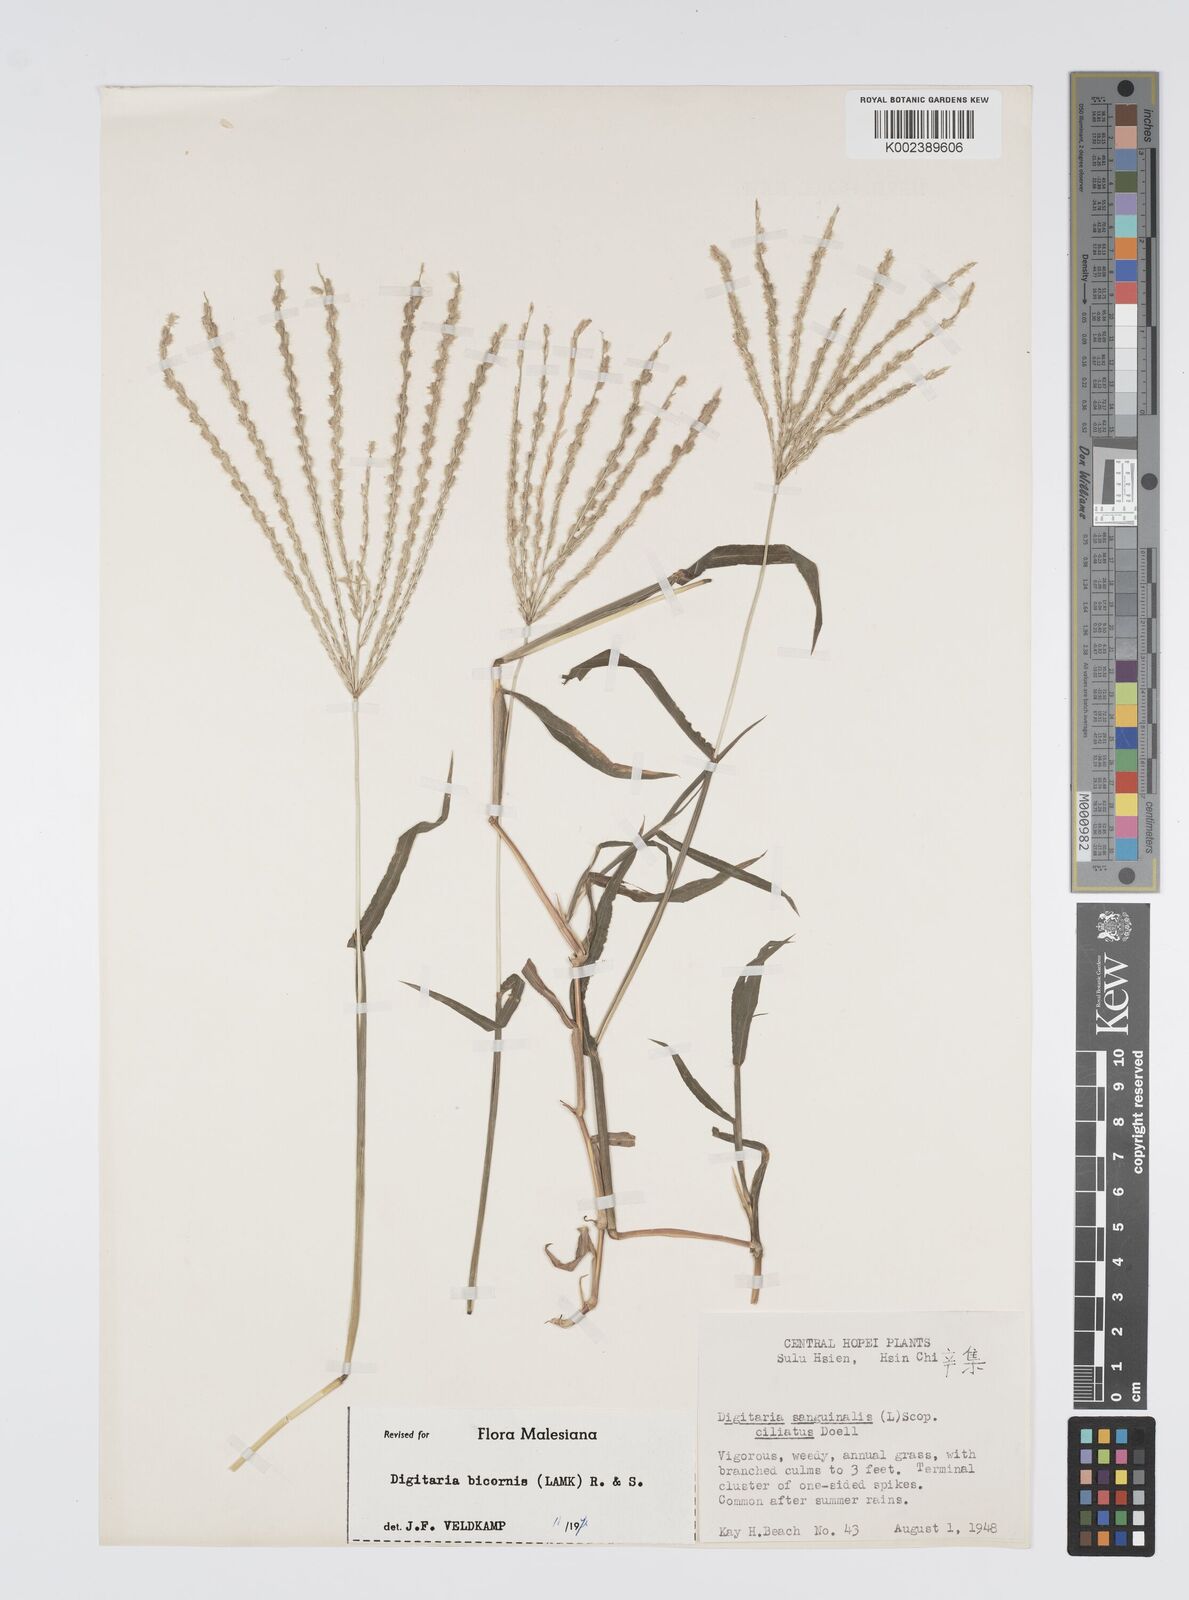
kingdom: Plantae
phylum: Tracheophyta
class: Liliopsida
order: Poales
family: Poaceae
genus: Digitaria
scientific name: Digitaria ciliaris
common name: Tropical finger-grass
